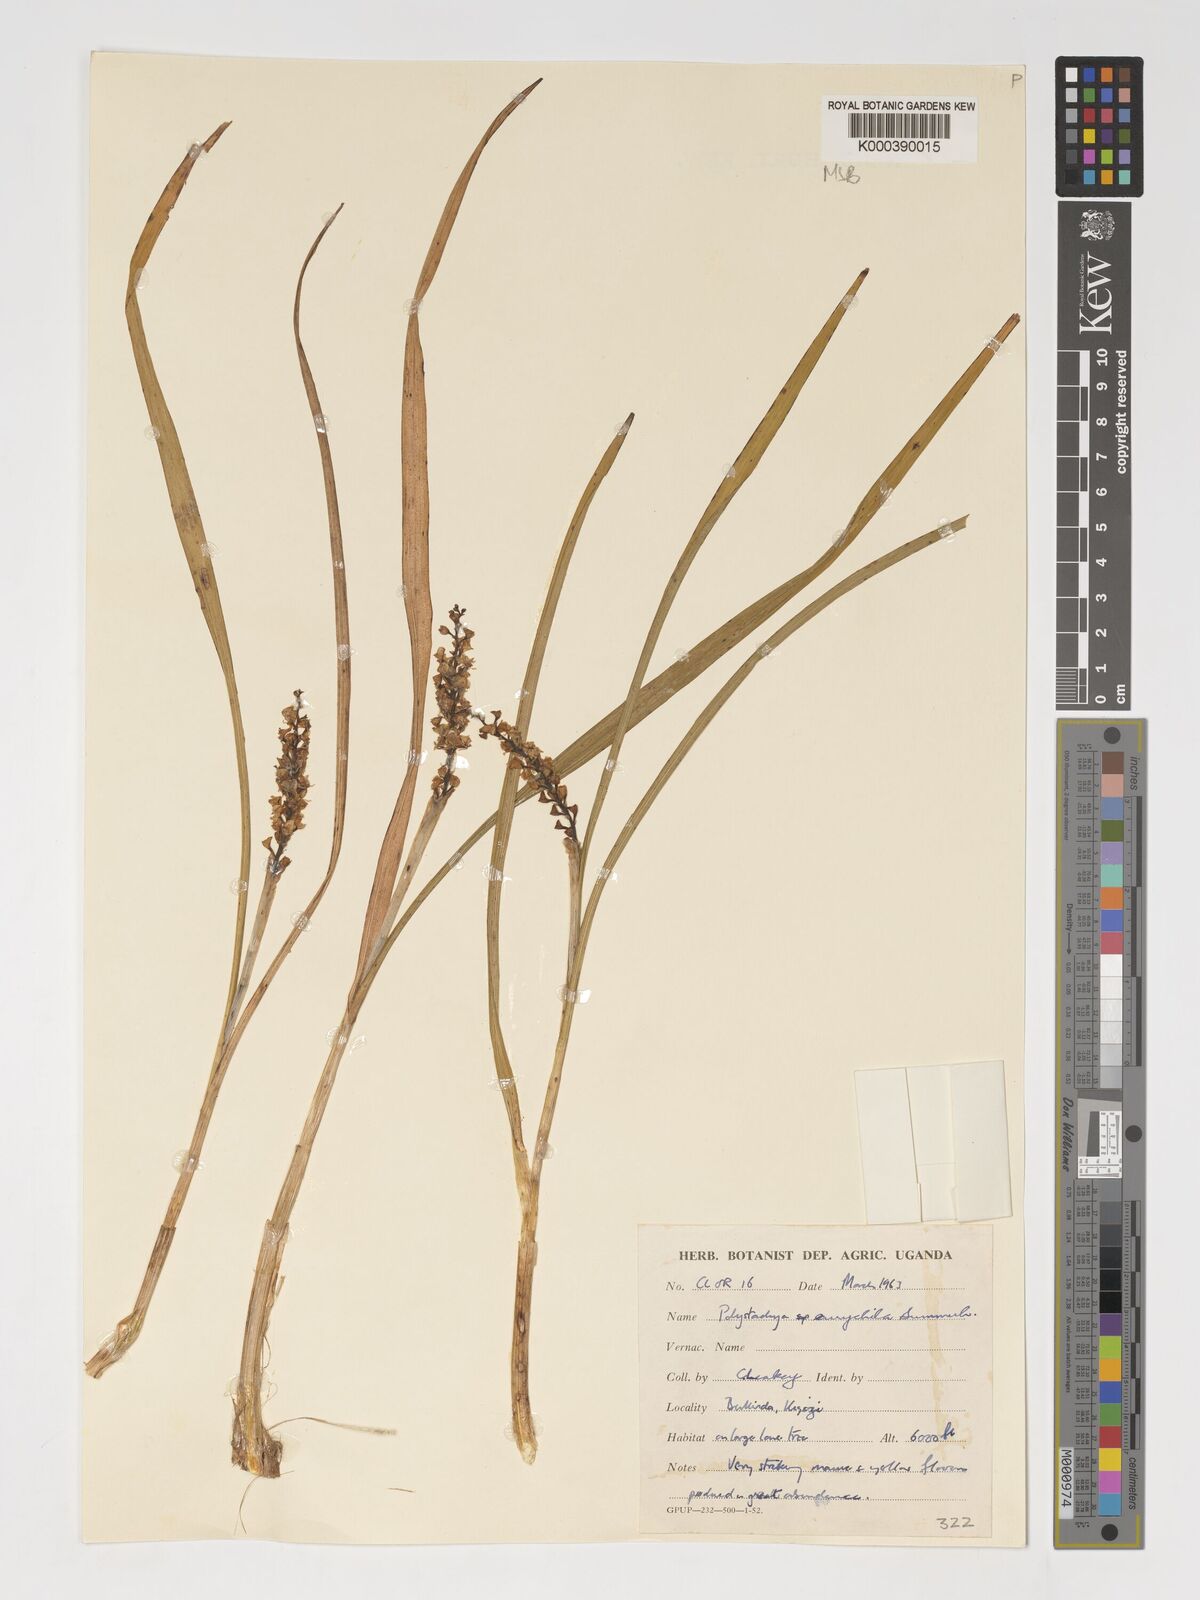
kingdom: Plantae
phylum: Tracheophyta
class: Liliopsida
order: Asparagales
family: Orchidaceae
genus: Polystachya
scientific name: Polystachya eurychila
